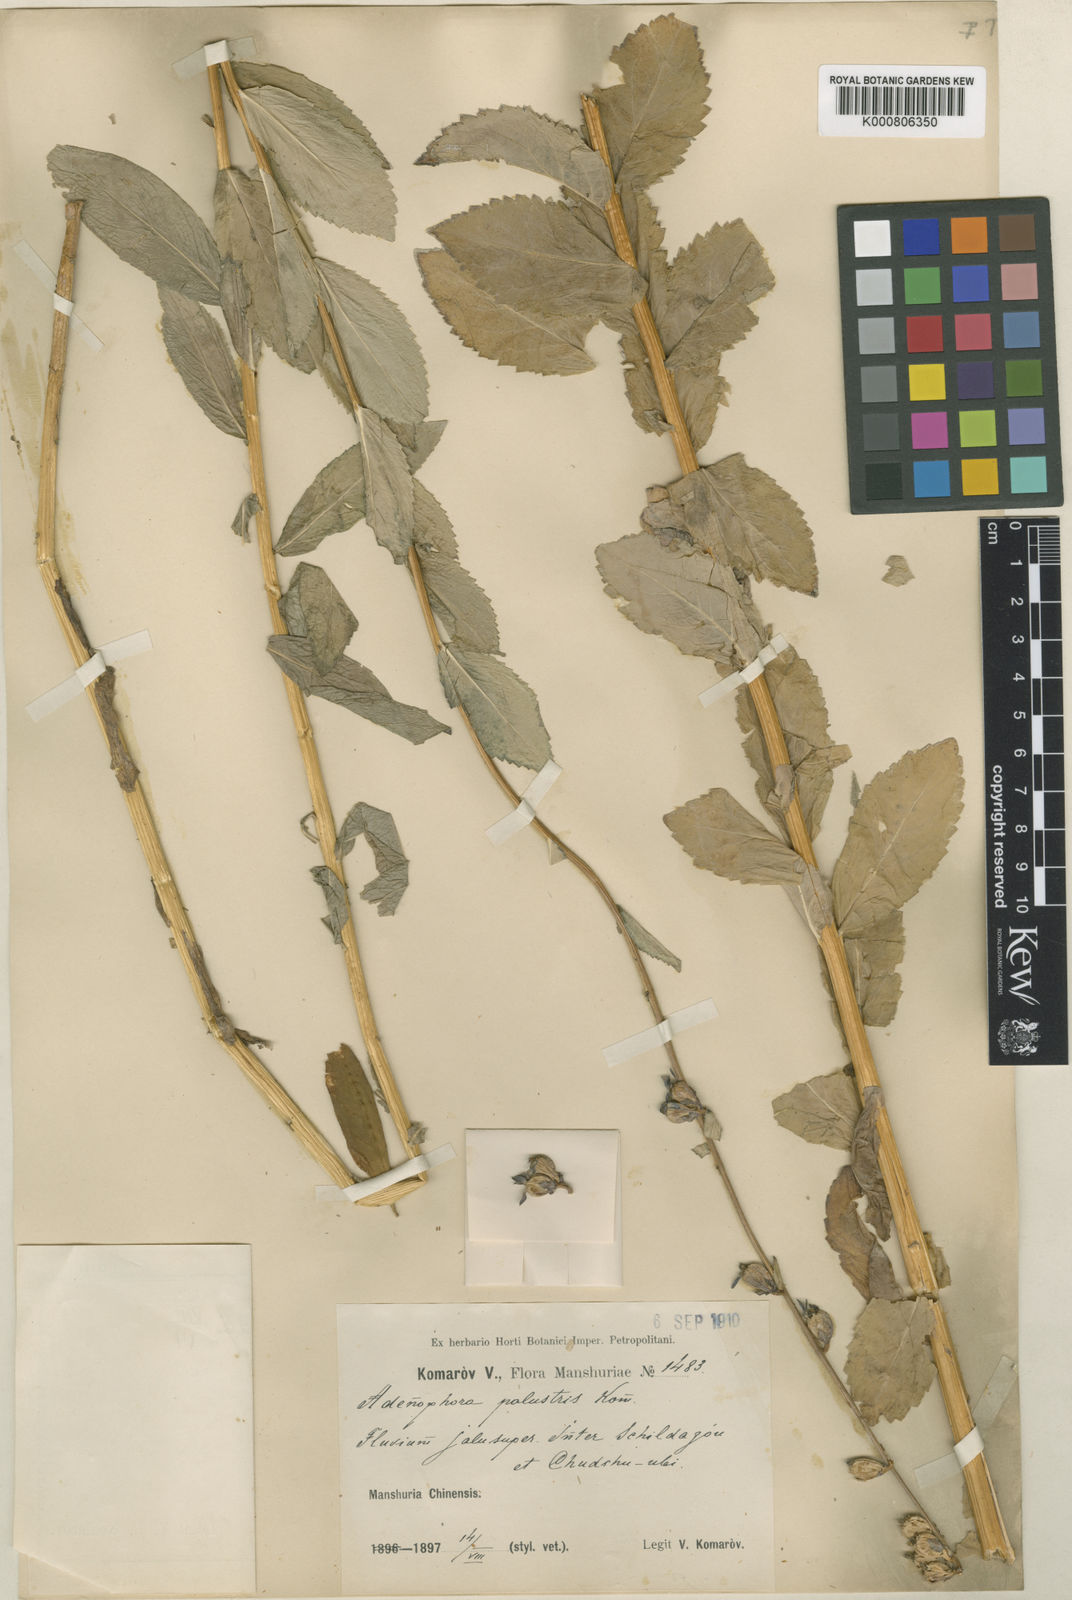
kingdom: Plantae
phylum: Tracheophyta
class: Magnoliopsida
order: Asterales
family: Campanulaceae
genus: Adenophora
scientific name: Adenophora palustris
